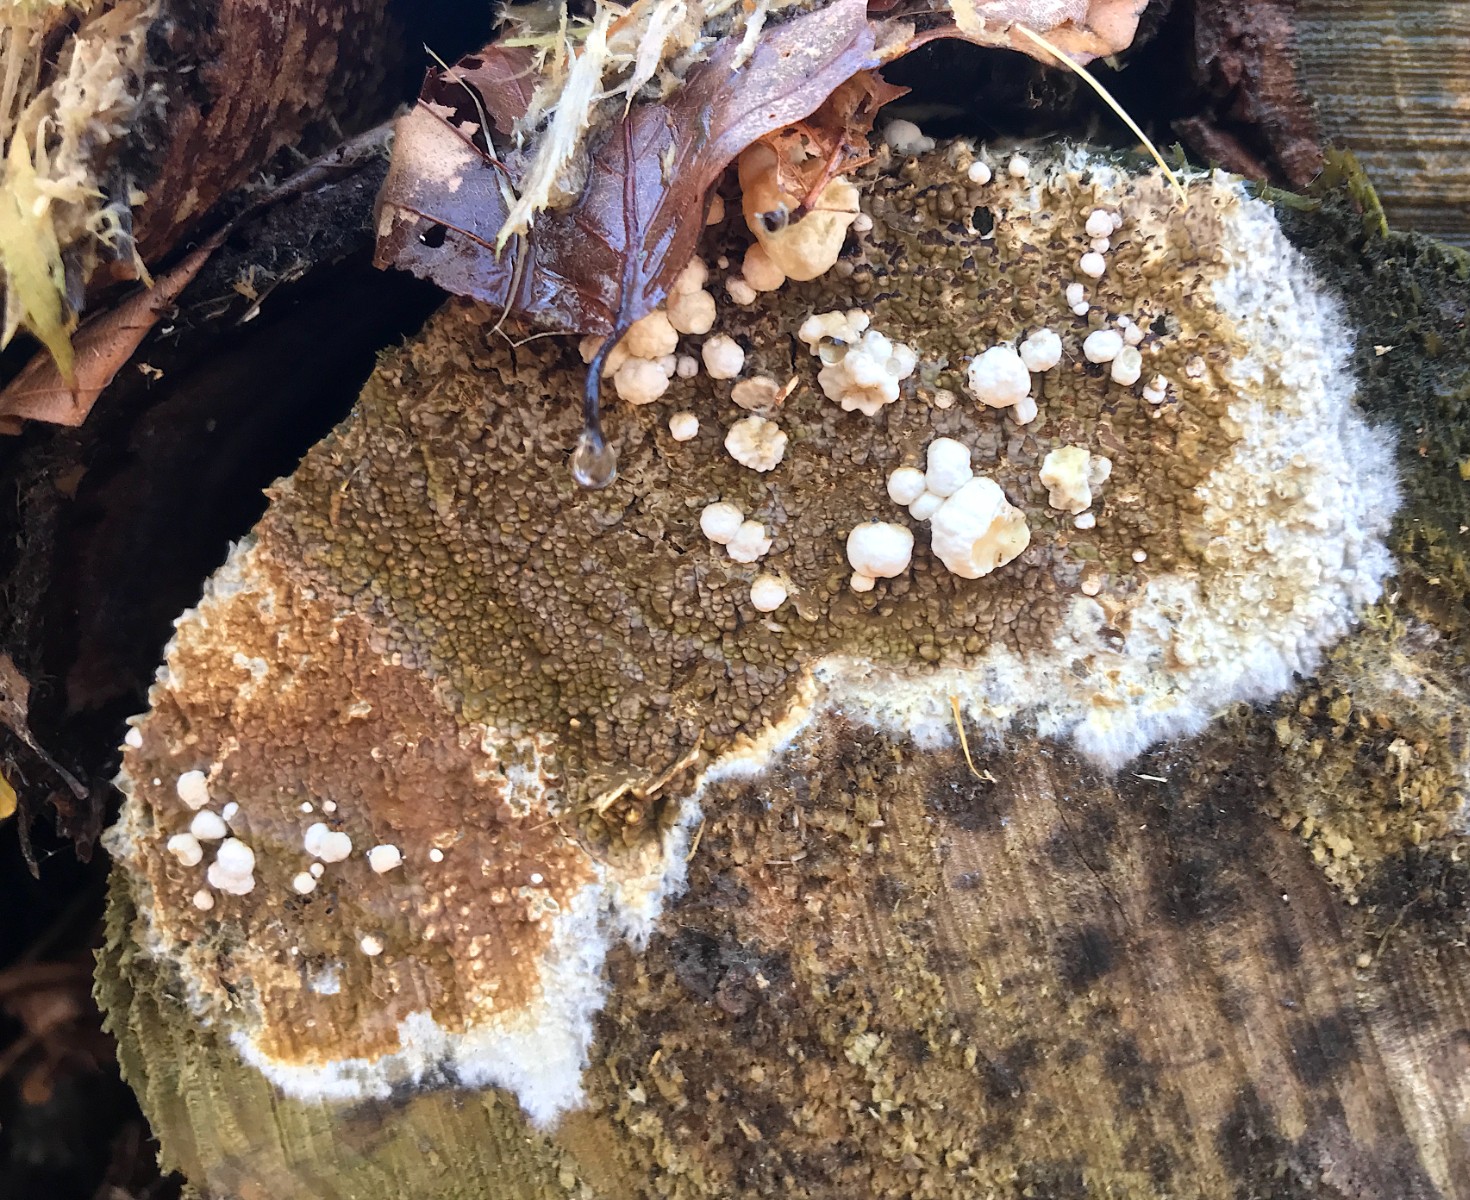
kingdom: Fungi
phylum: Basidiomycota
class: Agaricomycetes
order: Boletales
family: Coniophoraceae
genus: Coniophora
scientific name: Coniophora puteana
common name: gul tømmersvamp
